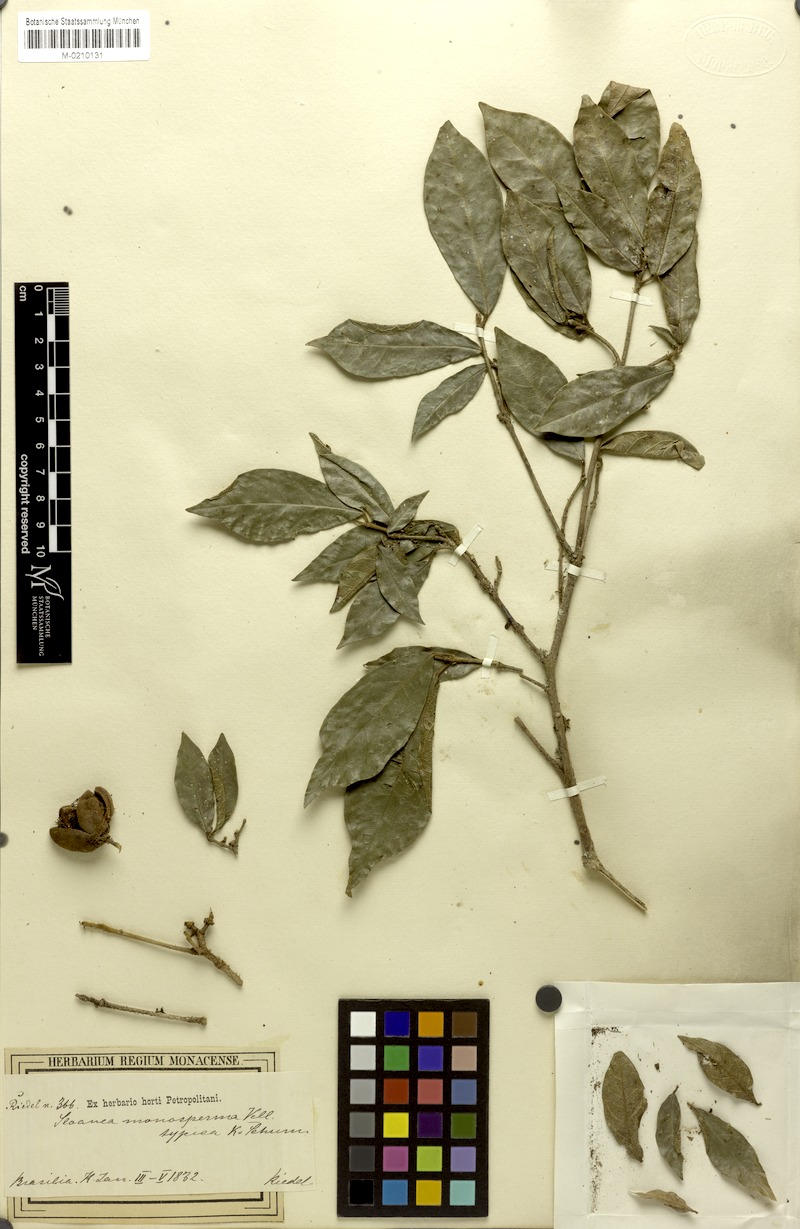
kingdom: Plantae
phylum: Tracheophyta
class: Magnoliopsida
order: Oxalidales
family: Elaeocarpaceae
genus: Sloanea
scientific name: Sloanea hirsuta
